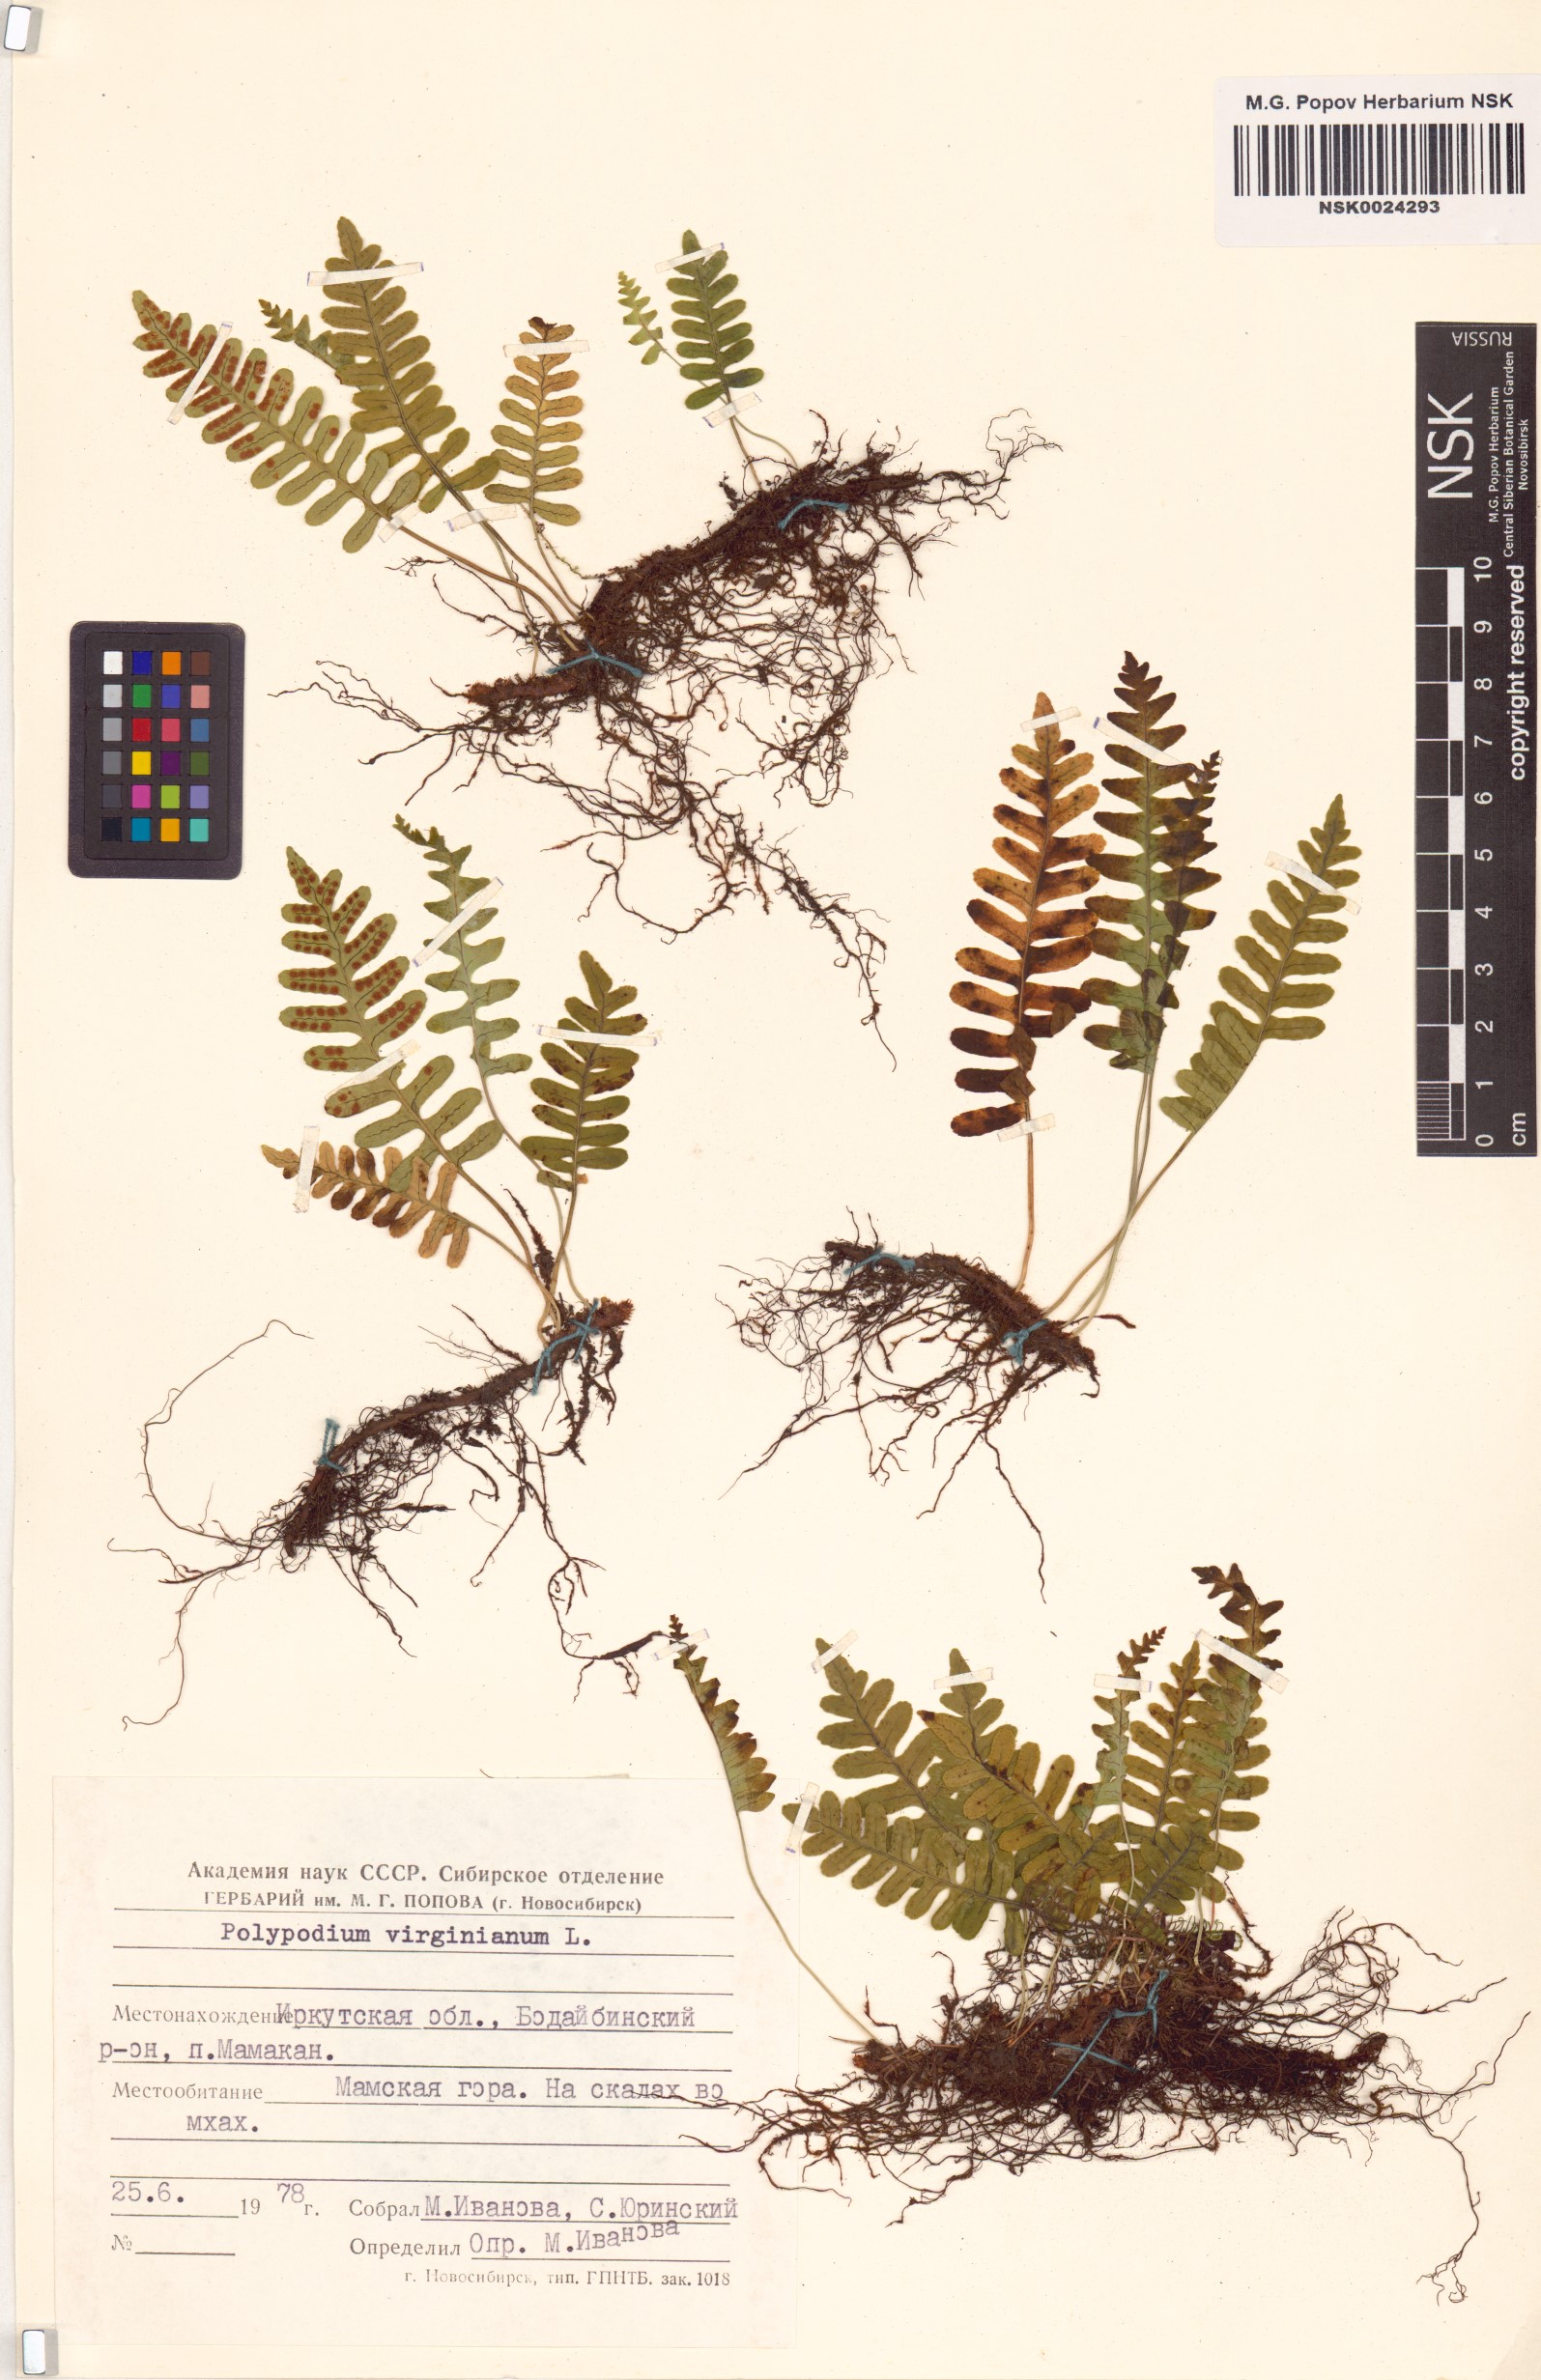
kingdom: Plantae
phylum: Tracheophyta
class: Polypodiopsida
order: Polypodiales
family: Polypodiaceae
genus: Polypodium
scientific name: Polypodium virginianum
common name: American wall fern
